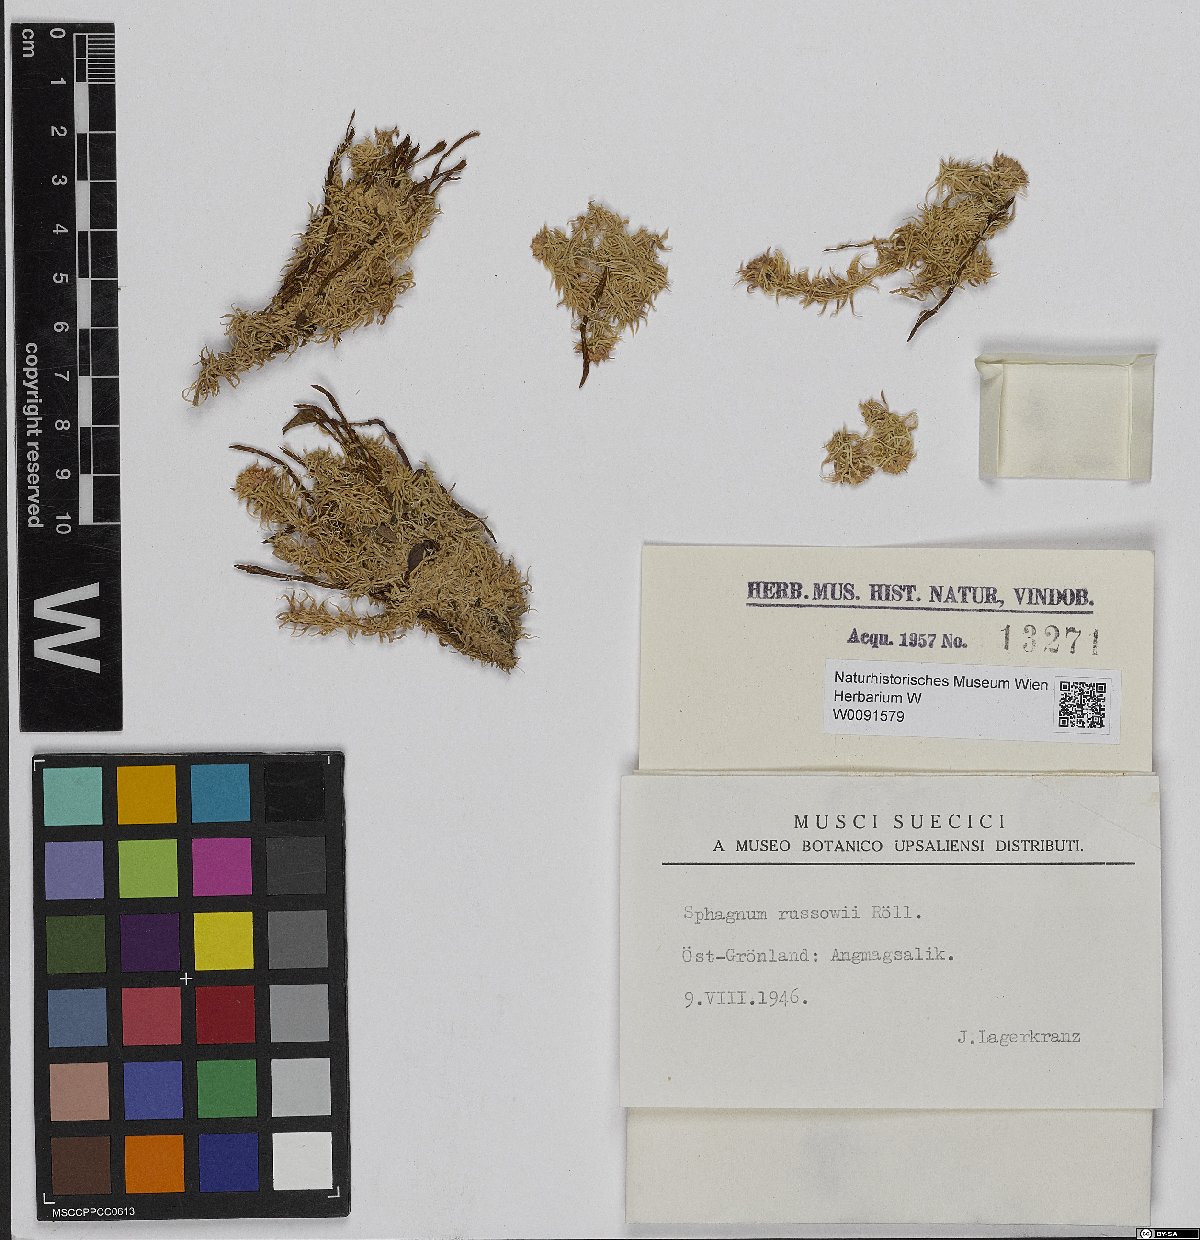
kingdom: Plantae
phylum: Bryophyta
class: Sphagnopsida
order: Sphagnales
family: Sphagnaceae
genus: Sphagnum
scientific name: Sphagnum russowii
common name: Russow's peat moss
